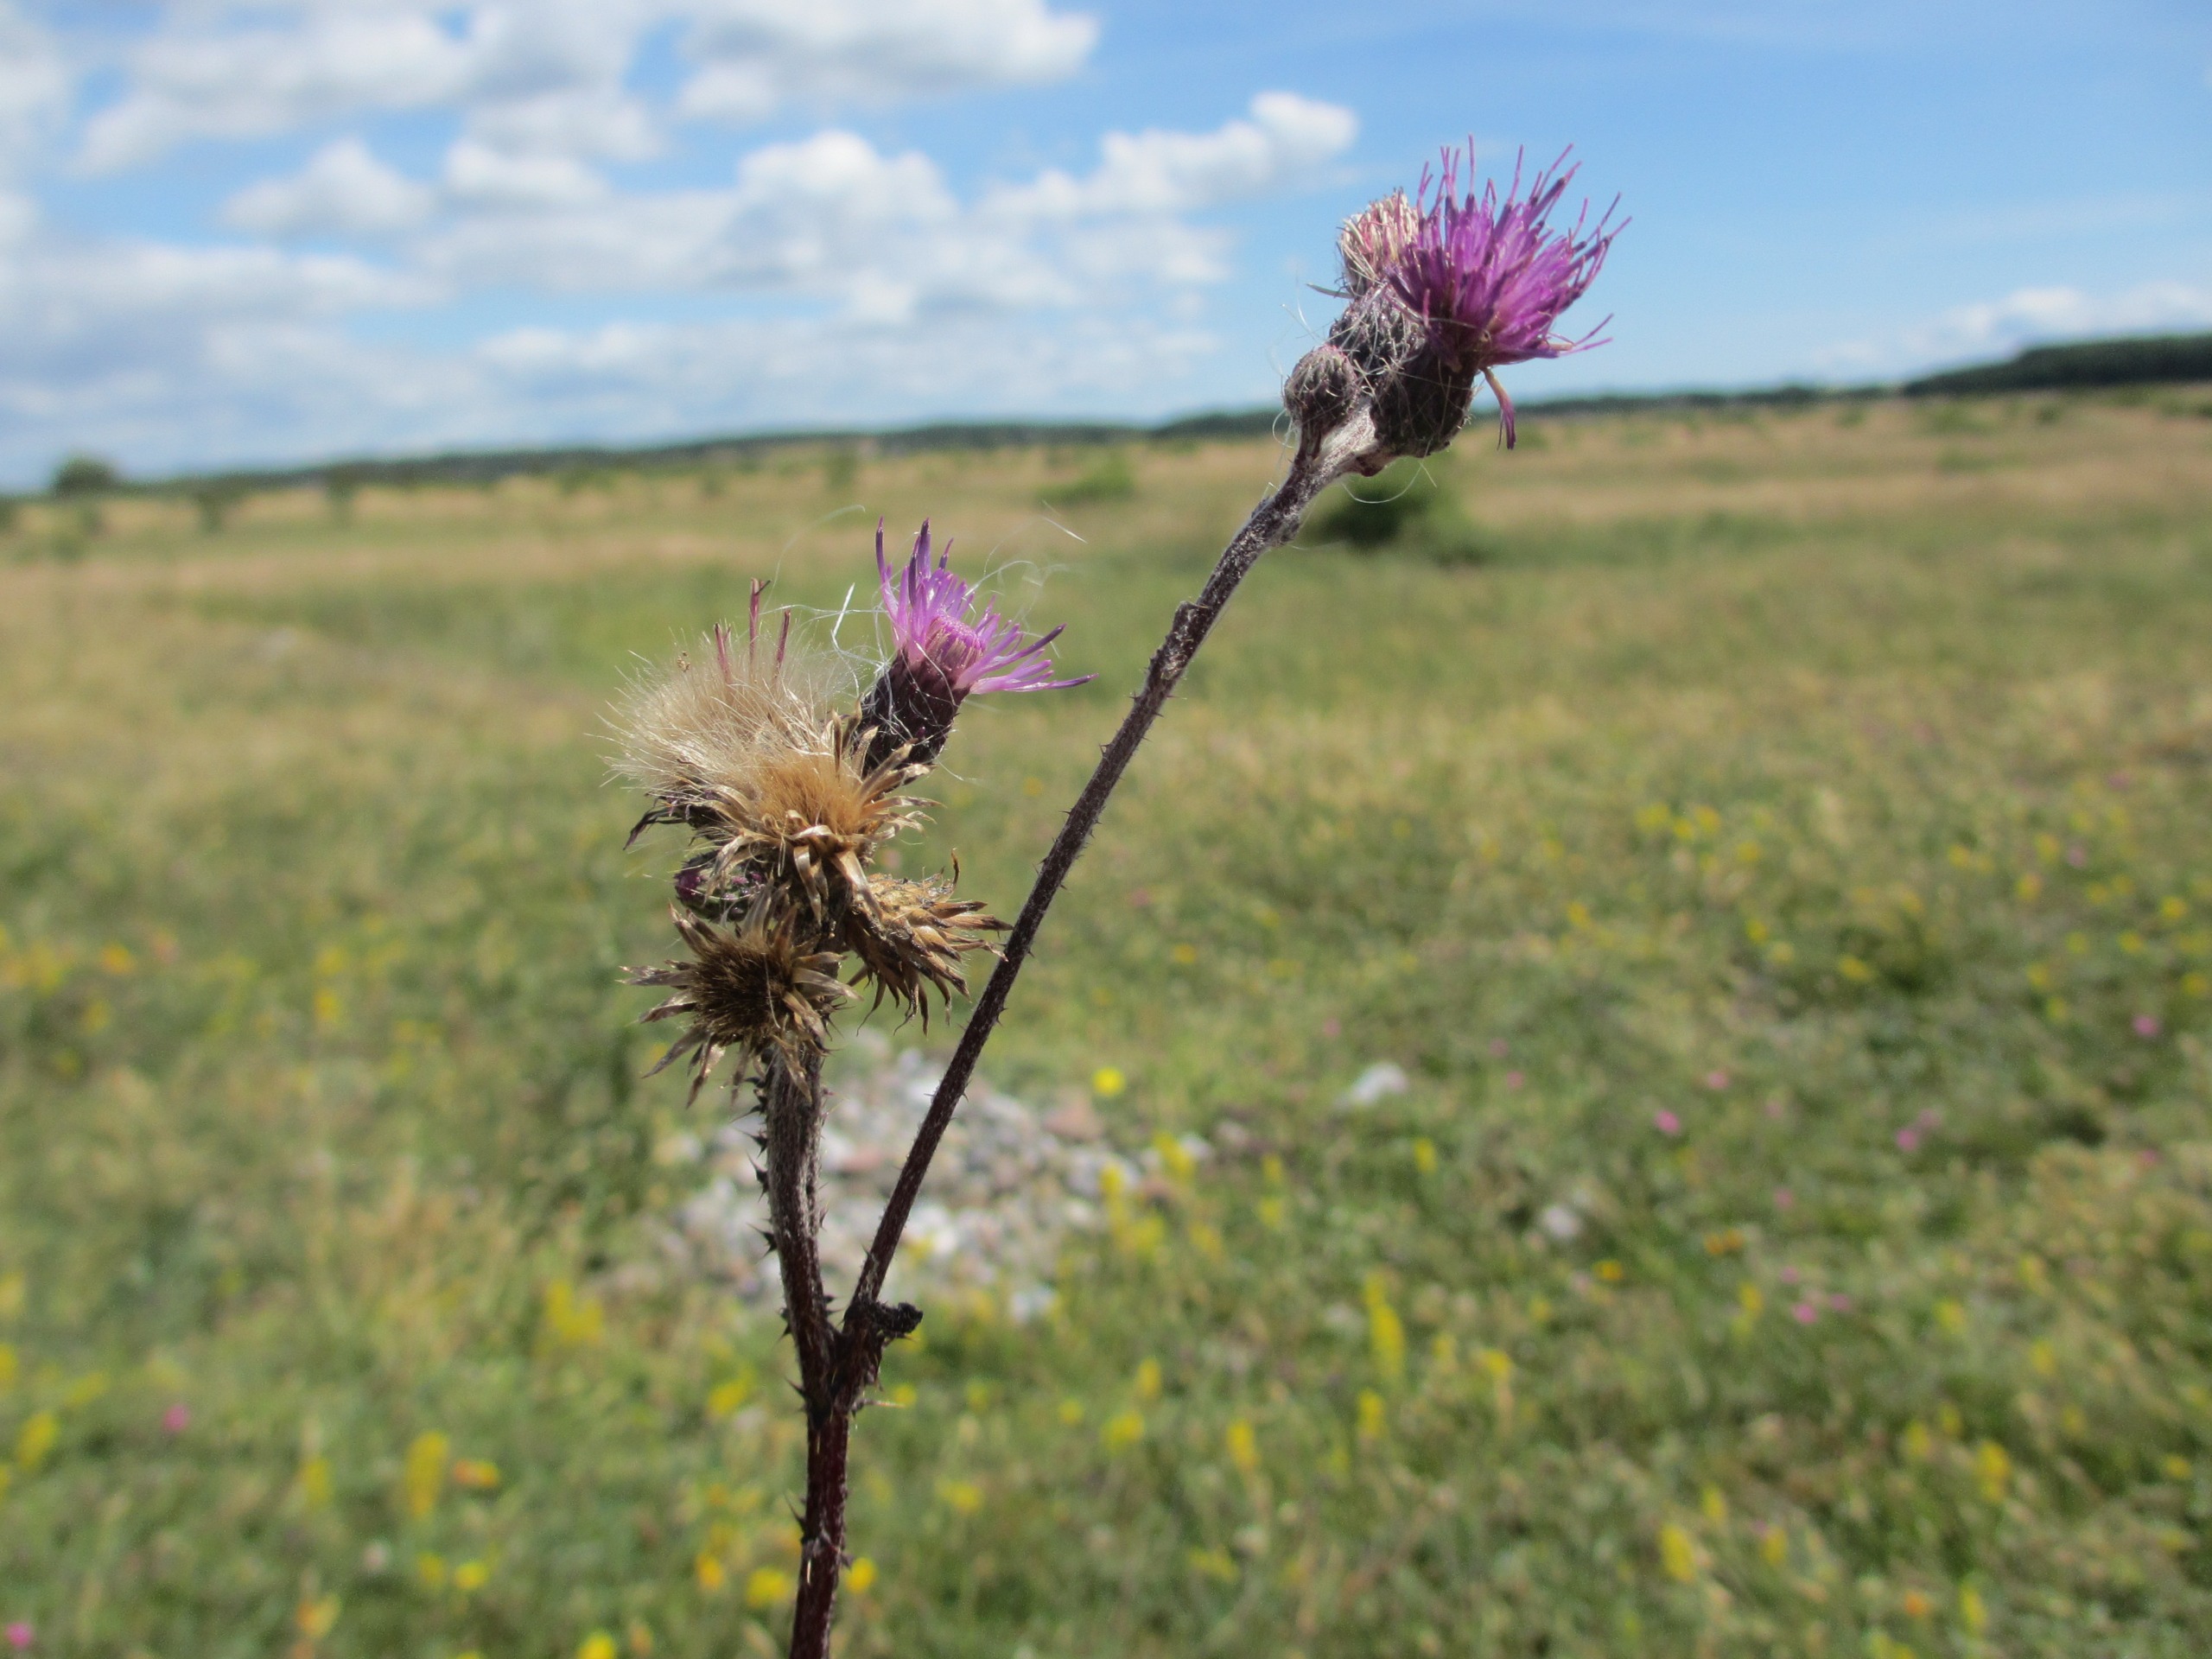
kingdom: Plantae
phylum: Tracheophyta
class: Magnoliopsida
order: Asterales
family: Asteraceae
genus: Cirsium
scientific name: Cirsium palustre
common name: Kær-tidsel
